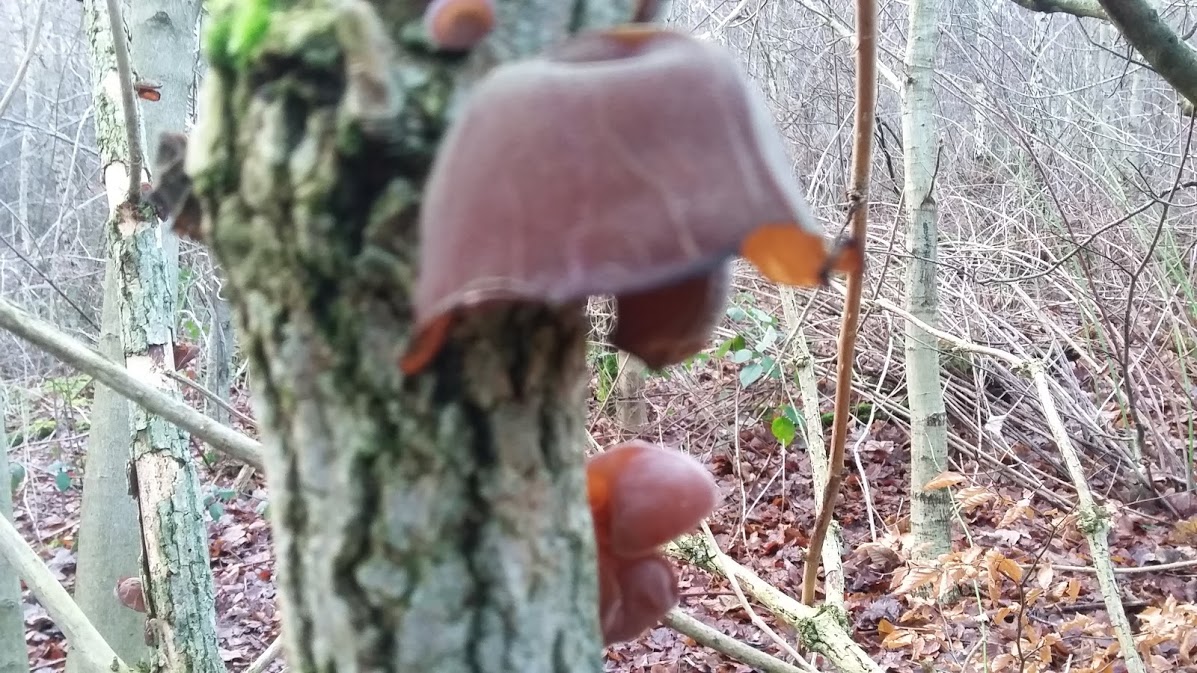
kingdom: Fungi
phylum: Basidiomycota
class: Agaricomycetes
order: Auriculariales
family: Auriculariaceae
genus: Auricularia
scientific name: Auricularia auricula-judae
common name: almindelig judasøre
